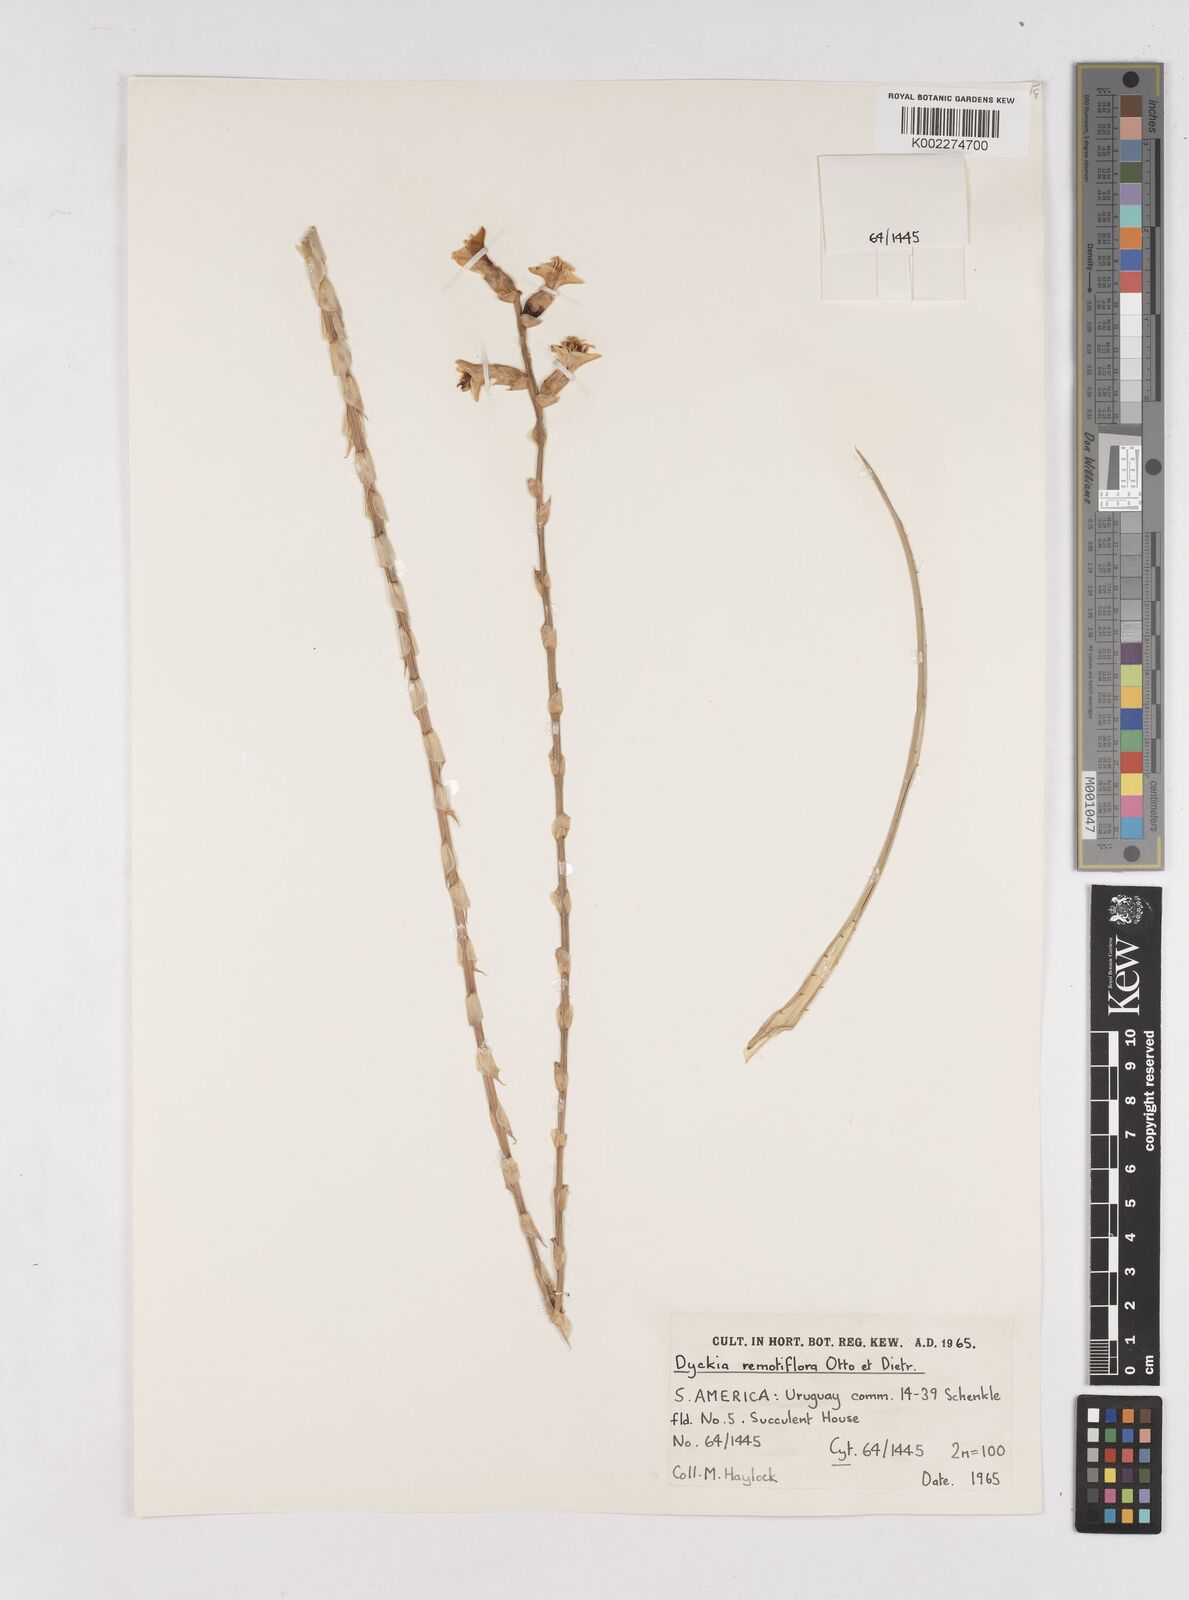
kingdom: Plantae
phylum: Tracheophyta
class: Liliopsida
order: Poales
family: Bromeliaceae
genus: Dyckia
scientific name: Dyckia remotiflora
